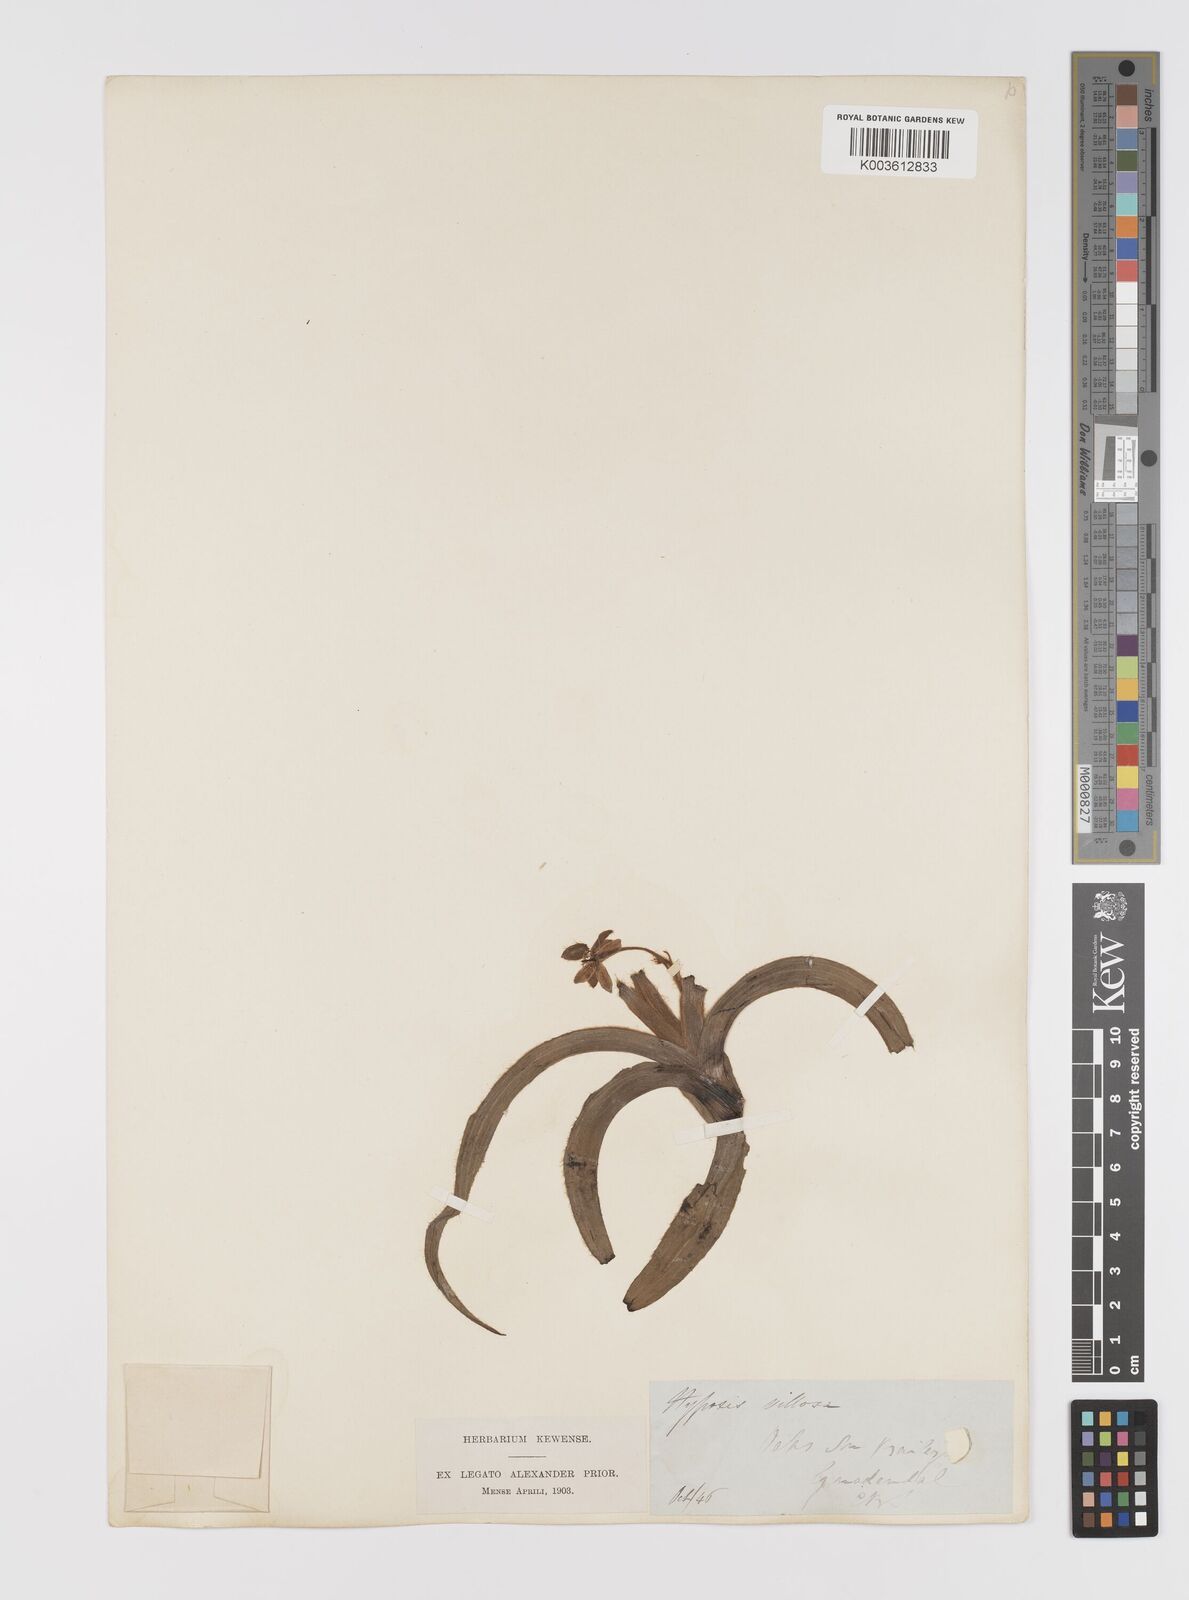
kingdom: Plantae
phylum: Tracheophyta
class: Liliopsida
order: Asparagales
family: Hypoxidaceae
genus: Hypoxis
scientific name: Hypoxis villosa
